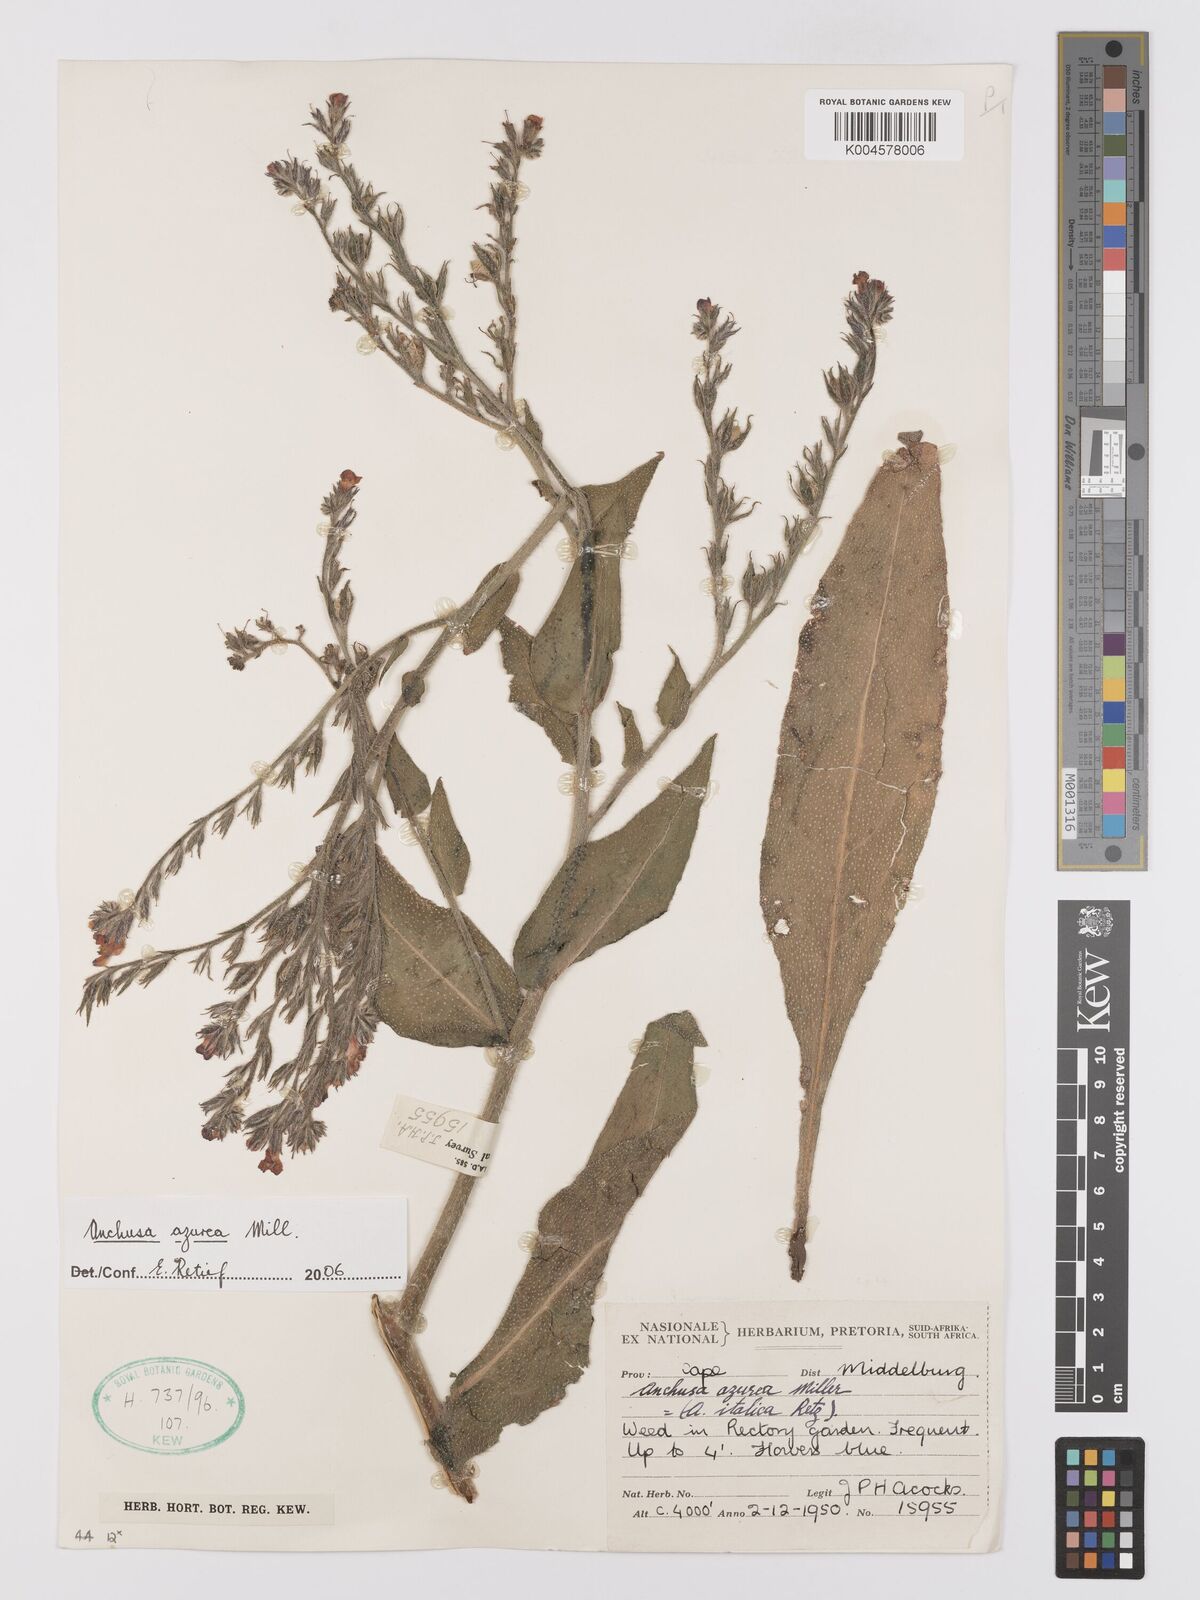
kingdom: Plantae
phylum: Tracheophyta
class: Magnoliopsida
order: Boraginales
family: Boraginaceae
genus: Anchusa
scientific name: Anchusa capensis
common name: Cape bugloss
